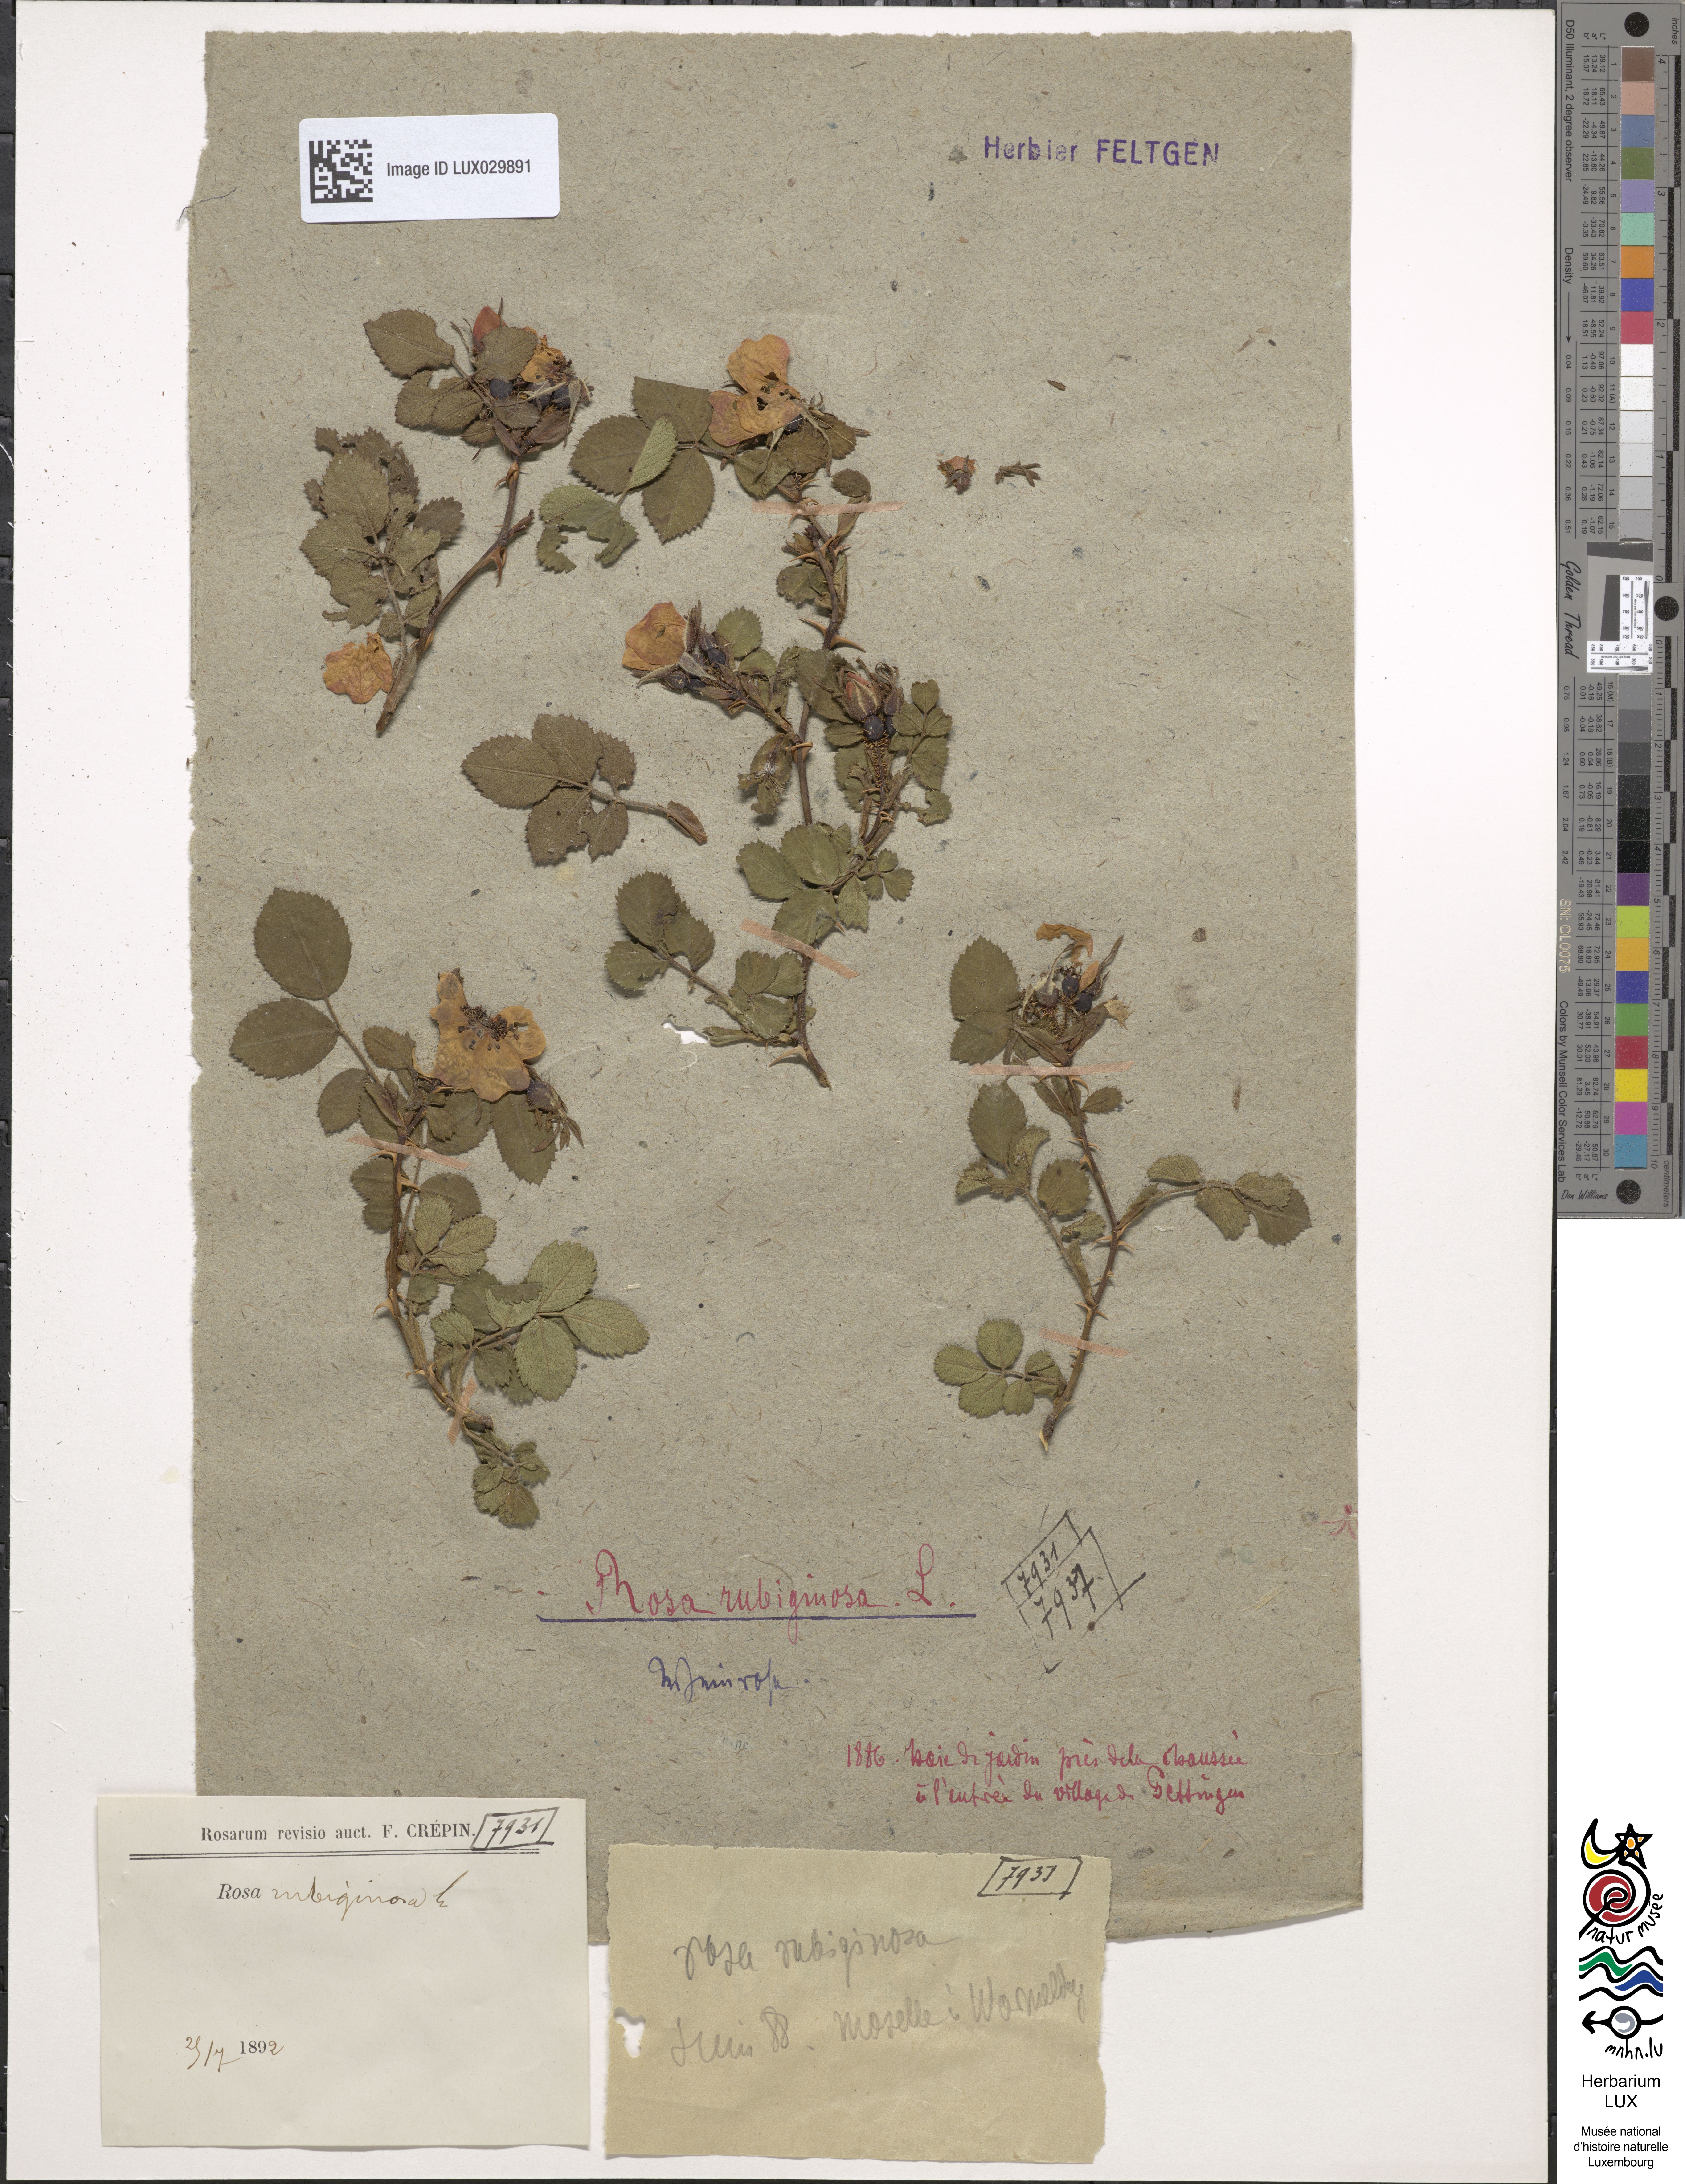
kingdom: Plantae
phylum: Tracheophyta
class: Magnoliopsida
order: Rosales
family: Rosaceae
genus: Rosa
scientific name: Rosa rubiginosa
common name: Sweet-briar
